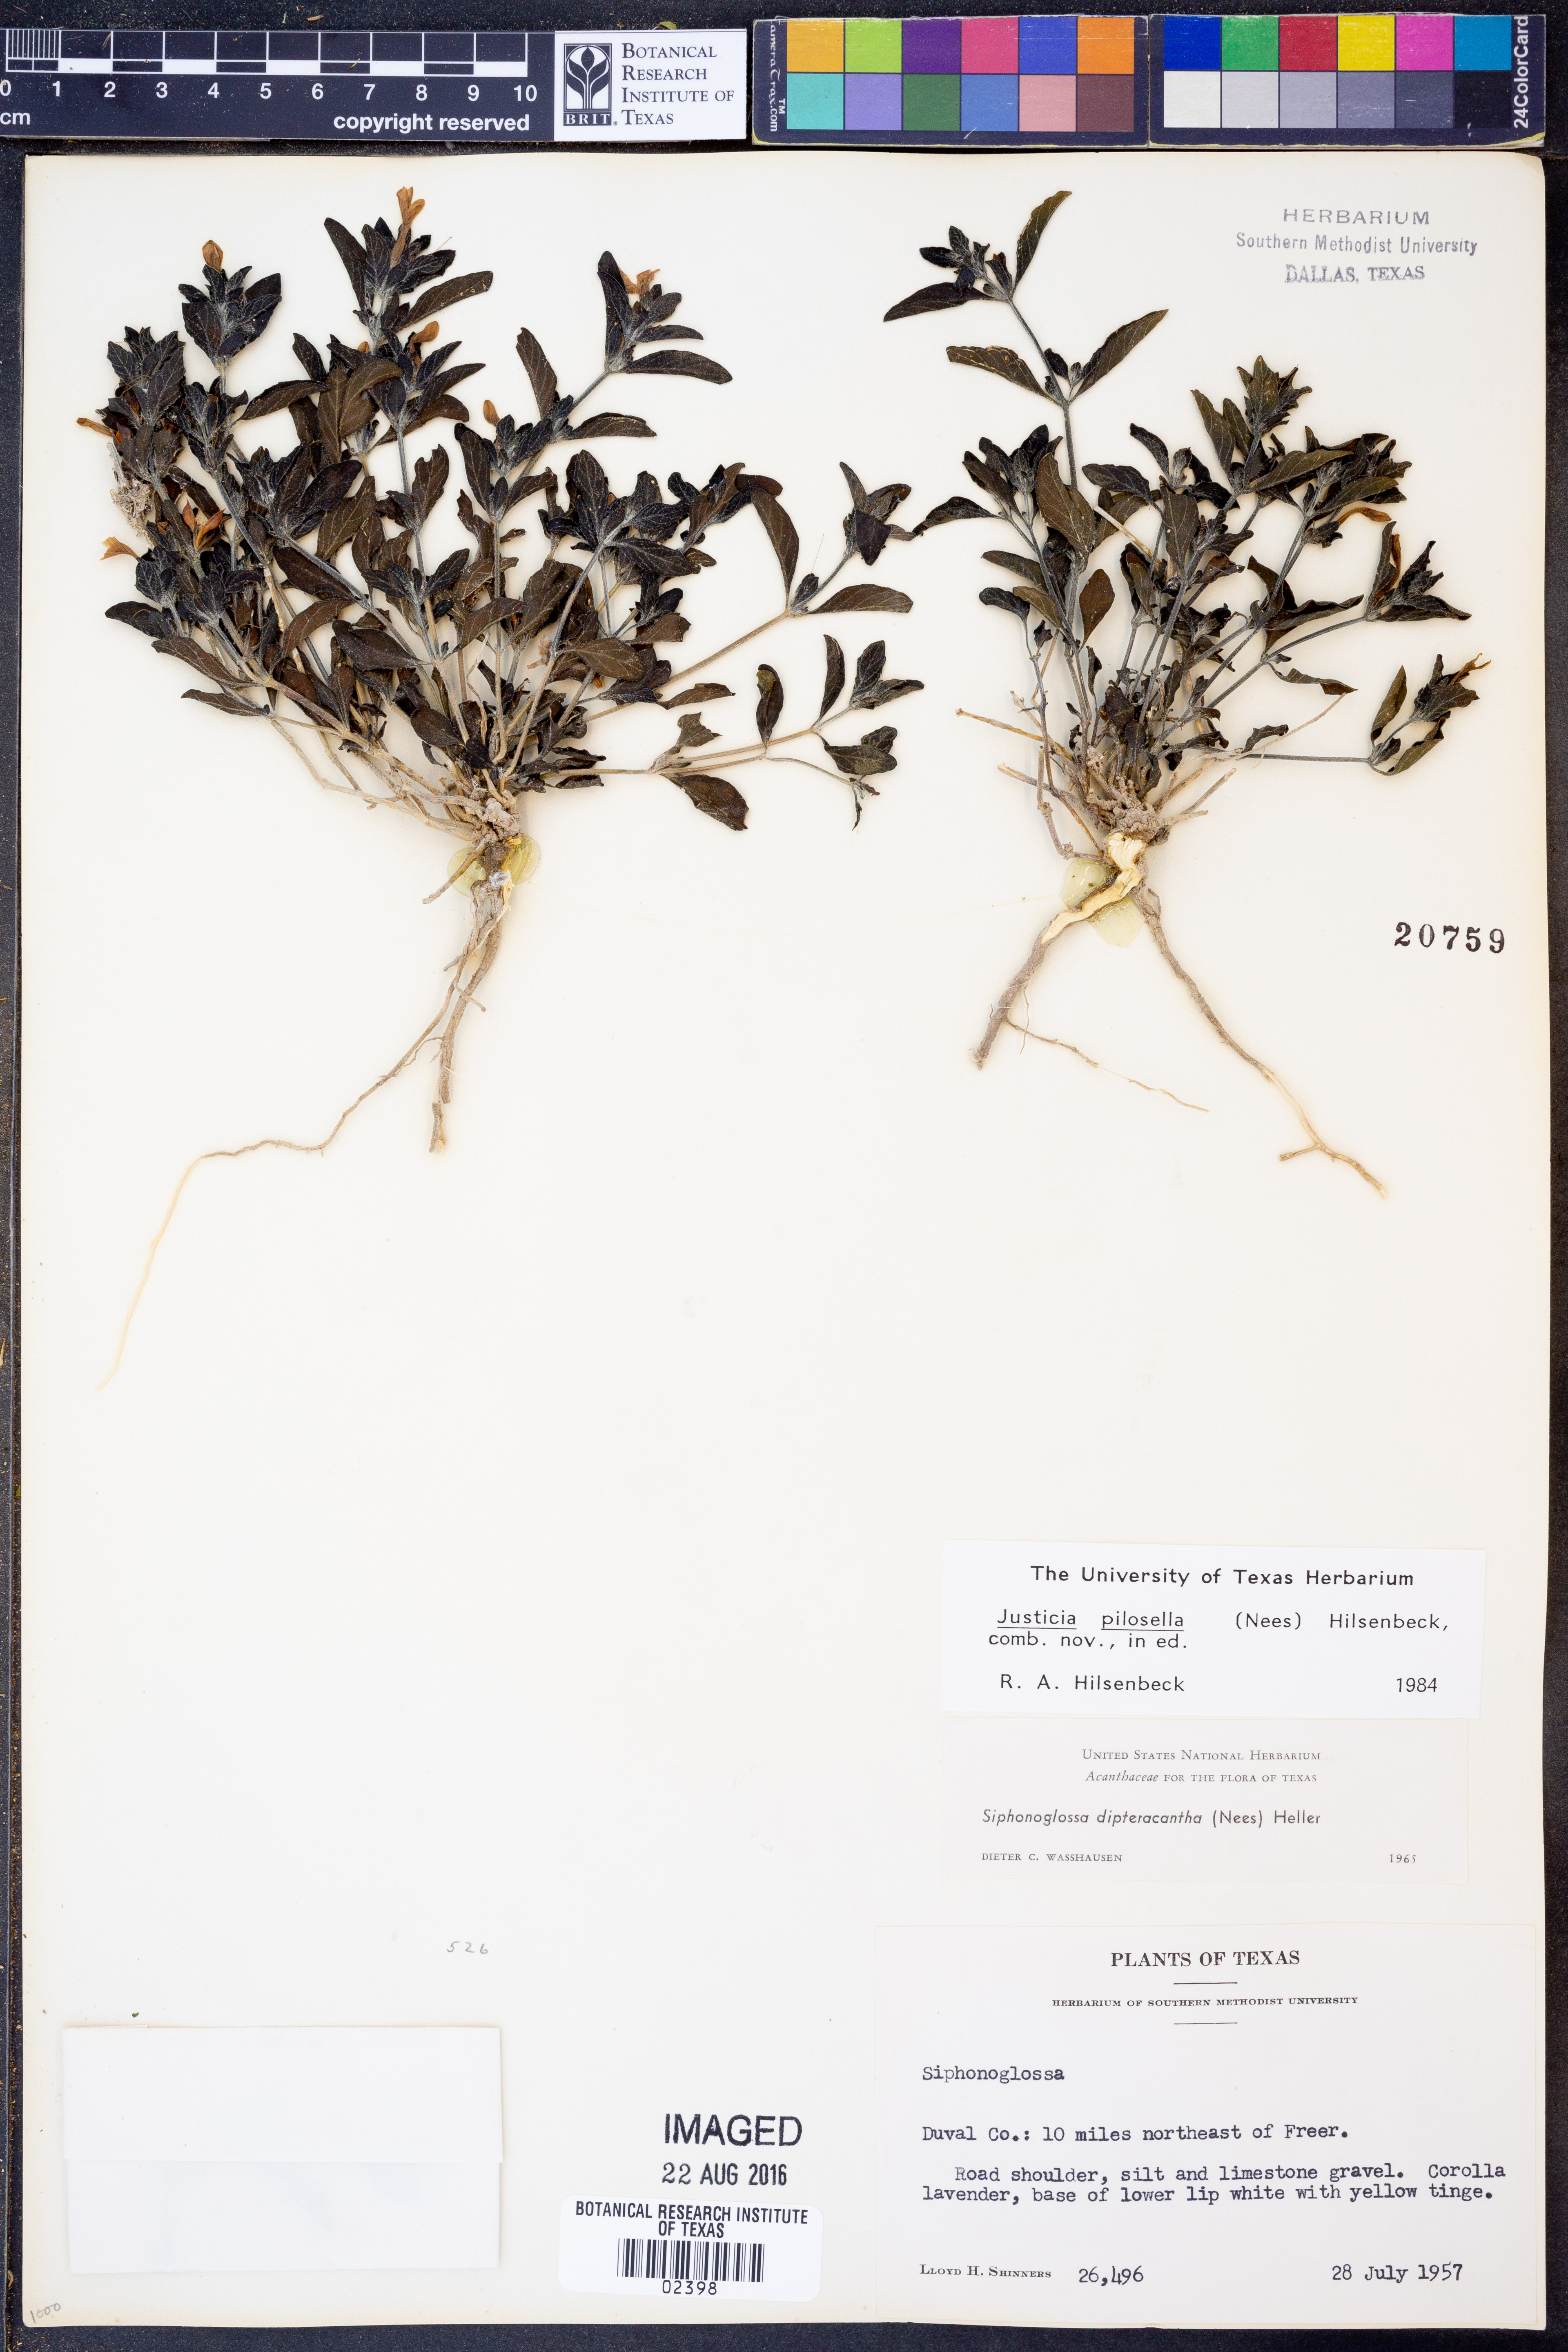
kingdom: Plantae
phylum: Tracheophyta
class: Magnoliopsida
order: Lamiales
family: Acanthaceae
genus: Justicia
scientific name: Justicia pilosella
